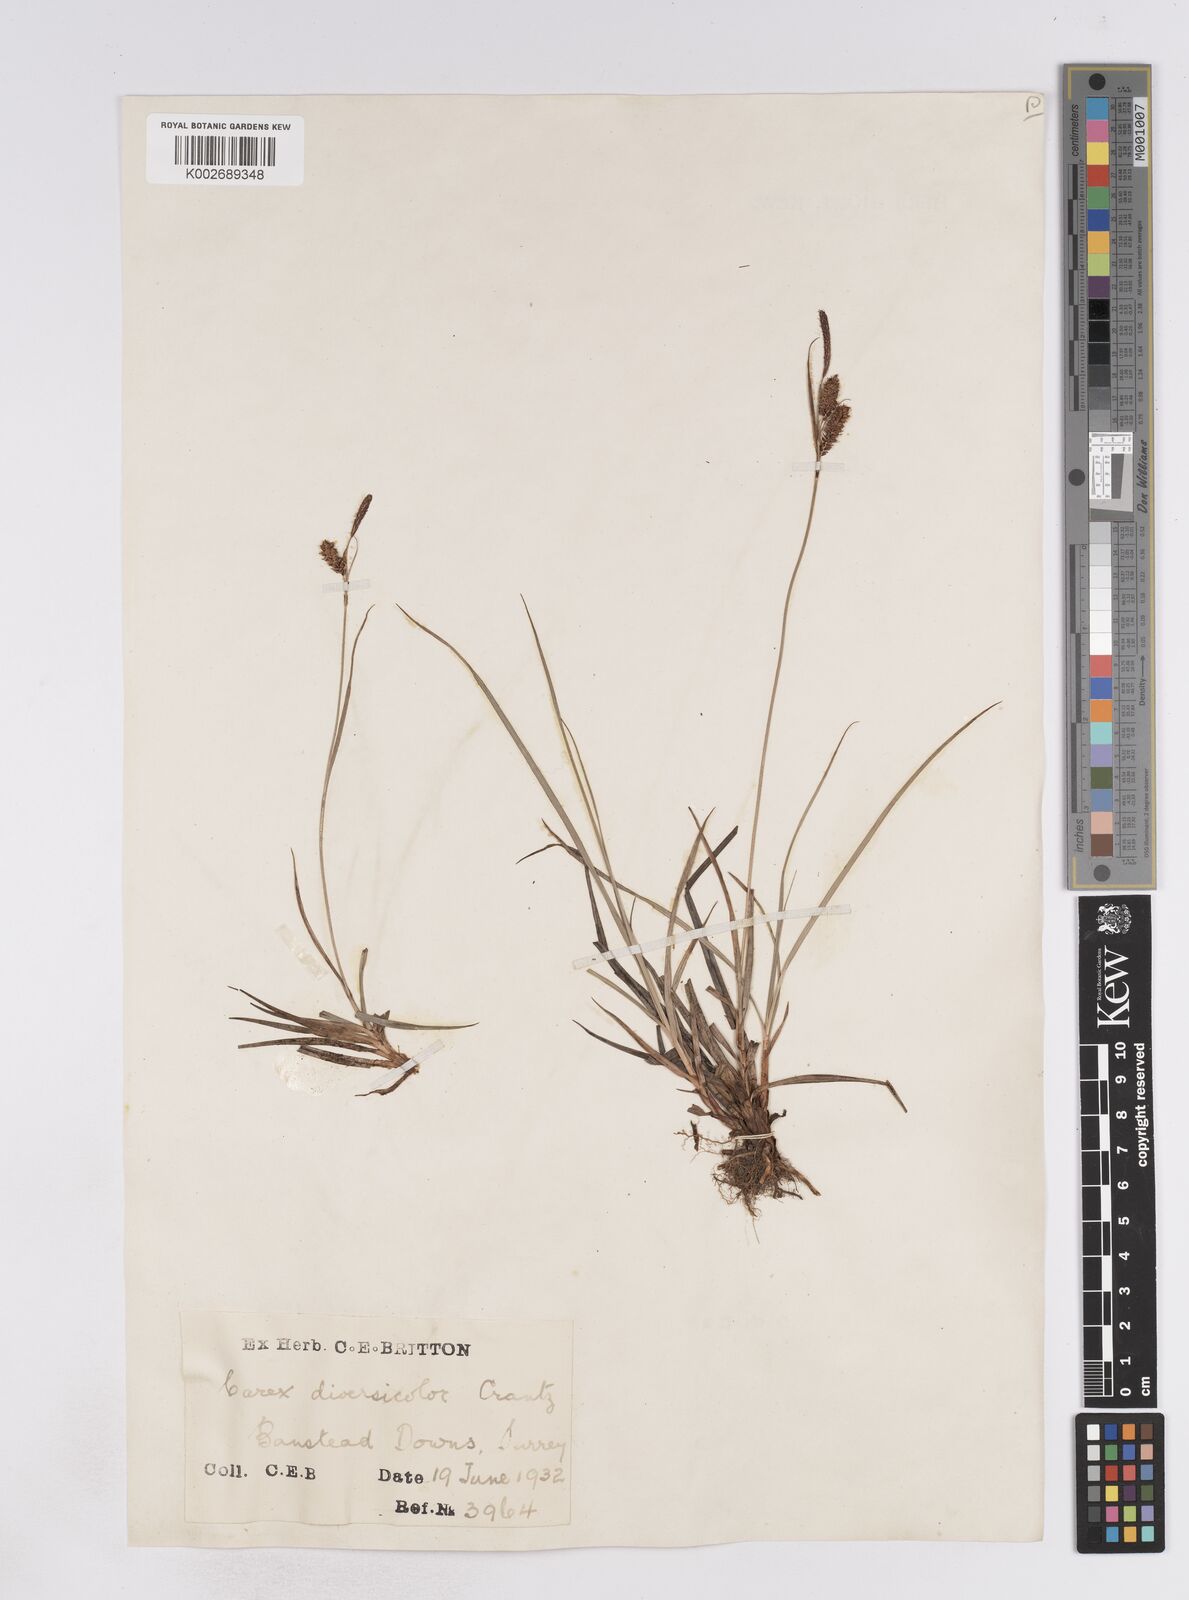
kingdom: Plantae
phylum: Tracheophyta
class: Liliopsida
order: Poales
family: Cyperaceae
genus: Carex
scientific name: Carex flacca
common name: Glaucous sedge
